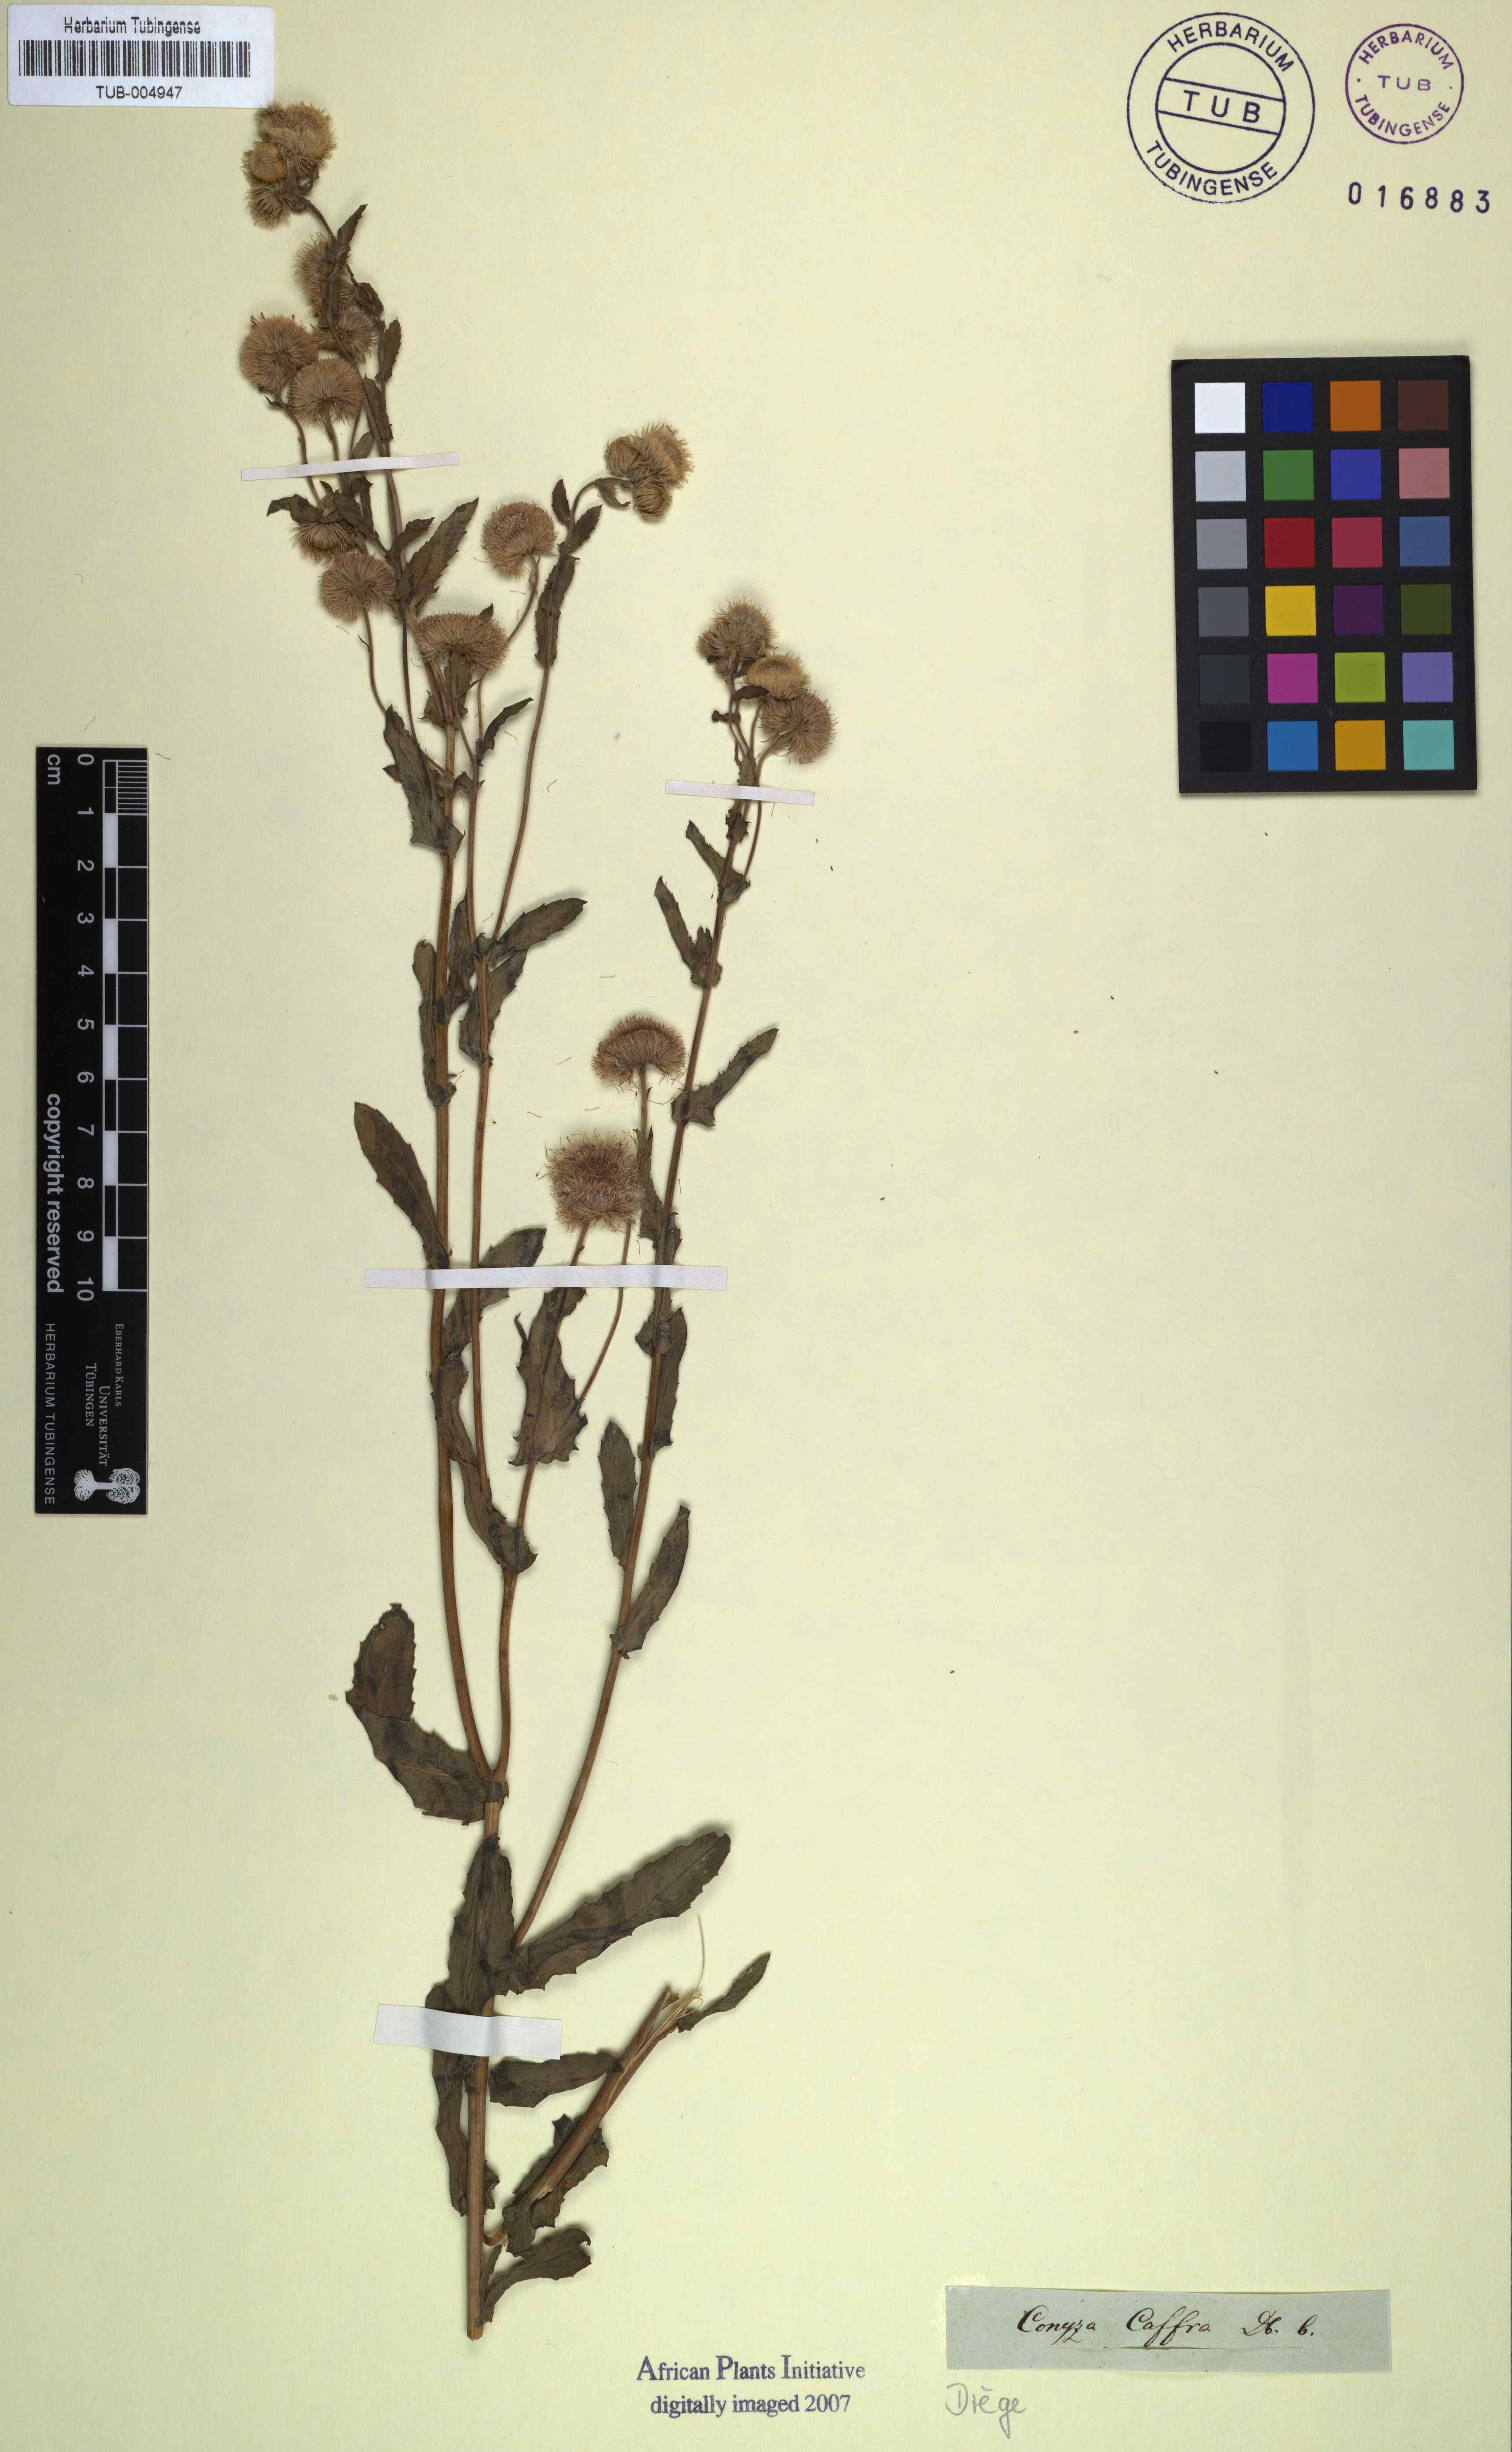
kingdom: Plantae
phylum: Tracheophyta
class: Magnoliopsida
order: Asterales
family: Asteraceae
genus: Doellia
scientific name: Doellia cafra
